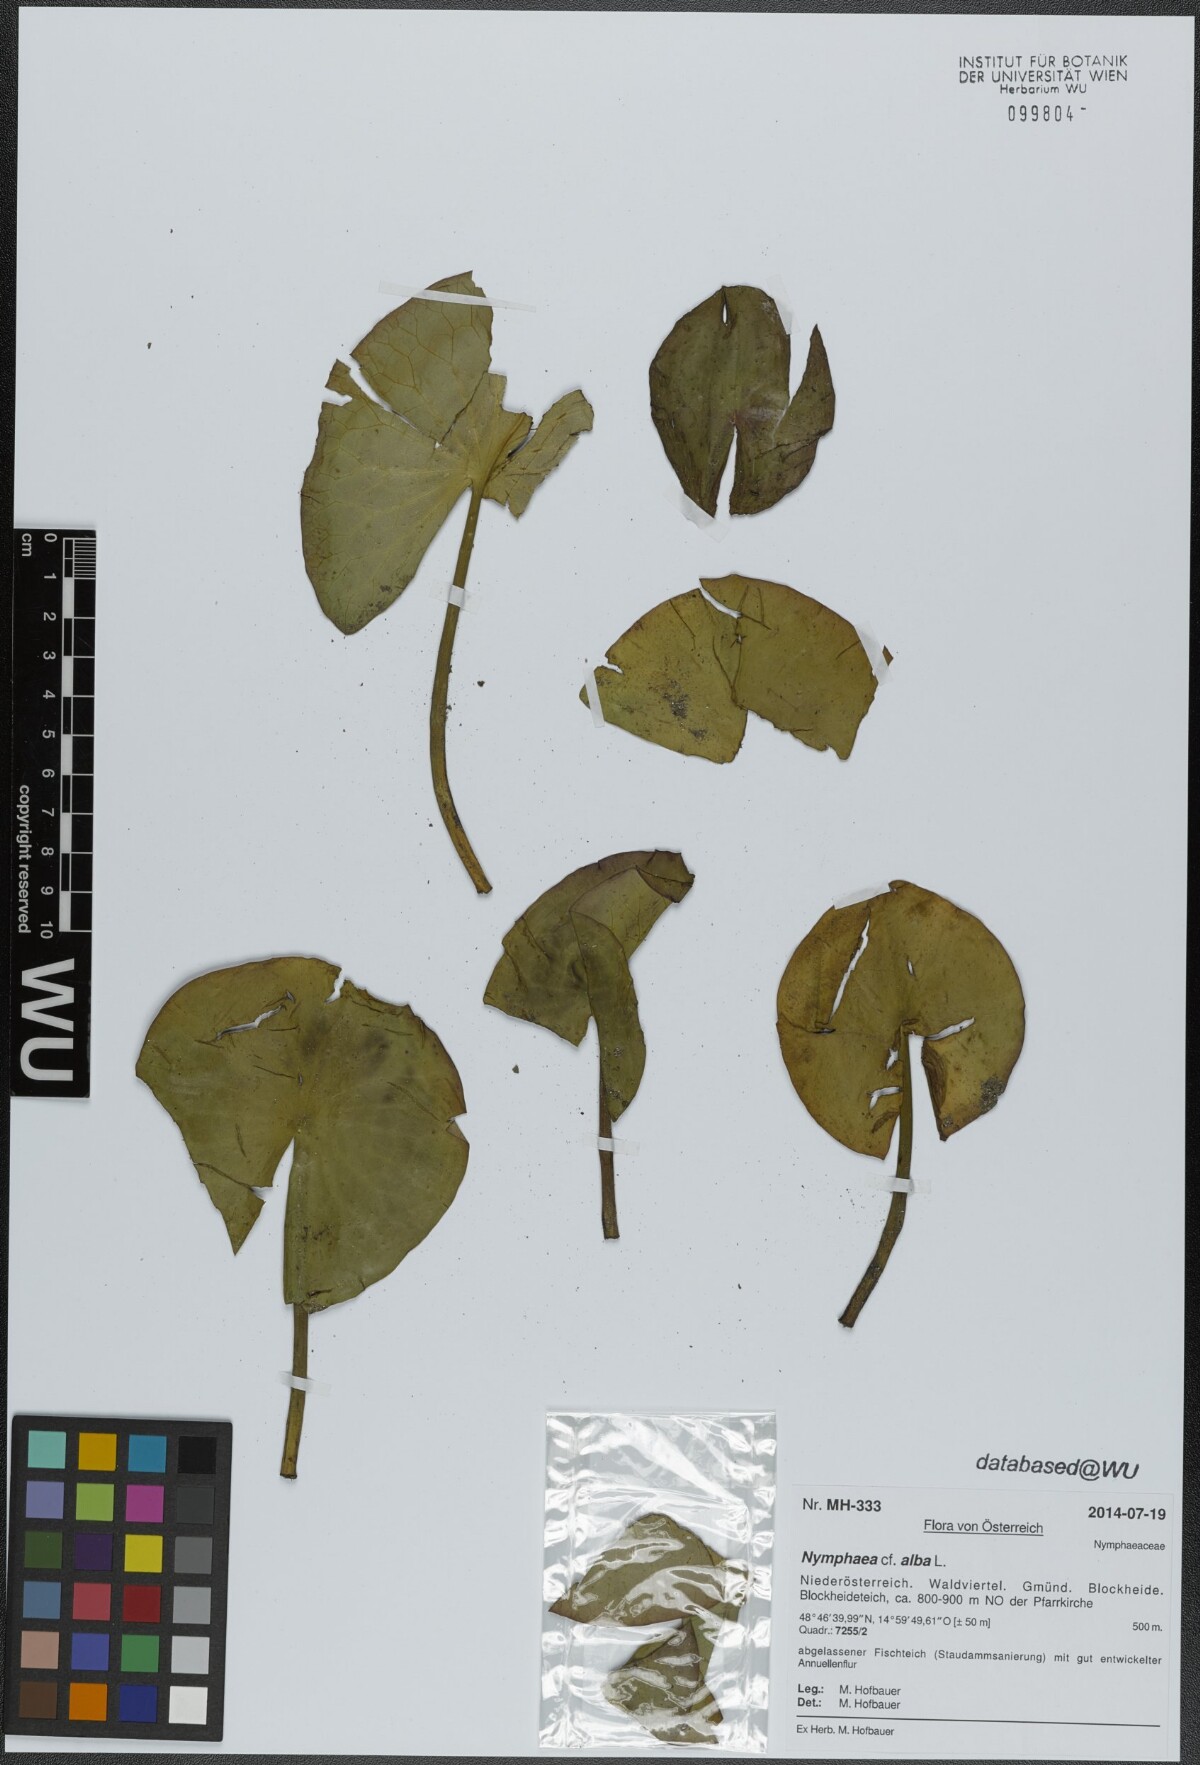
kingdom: Plantae
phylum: Tracheophyta
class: Magnoliopsida
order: Nymphaeales
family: Nymphaeaceae
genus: Nymphaea
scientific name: Nymphaea alba
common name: White water-lily
